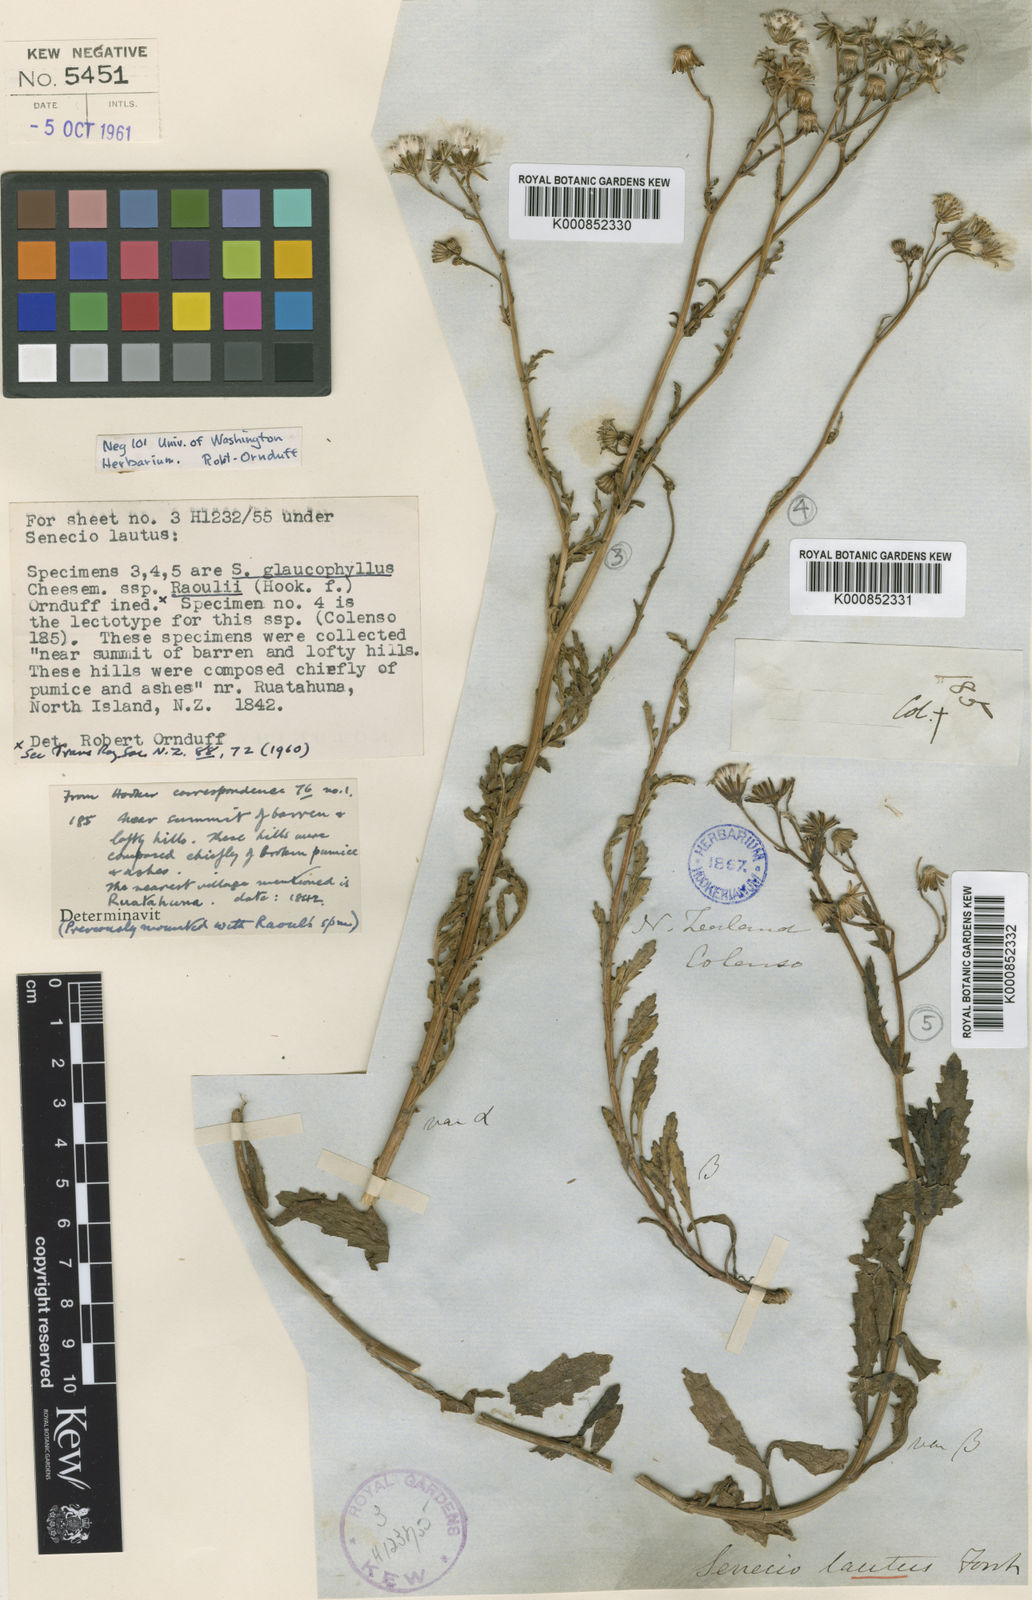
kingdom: Plantae
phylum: Tracheophyta
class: Magnoliopsida
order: Asterales
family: Asteraceae
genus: Senecio
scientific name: Senecio matatini
